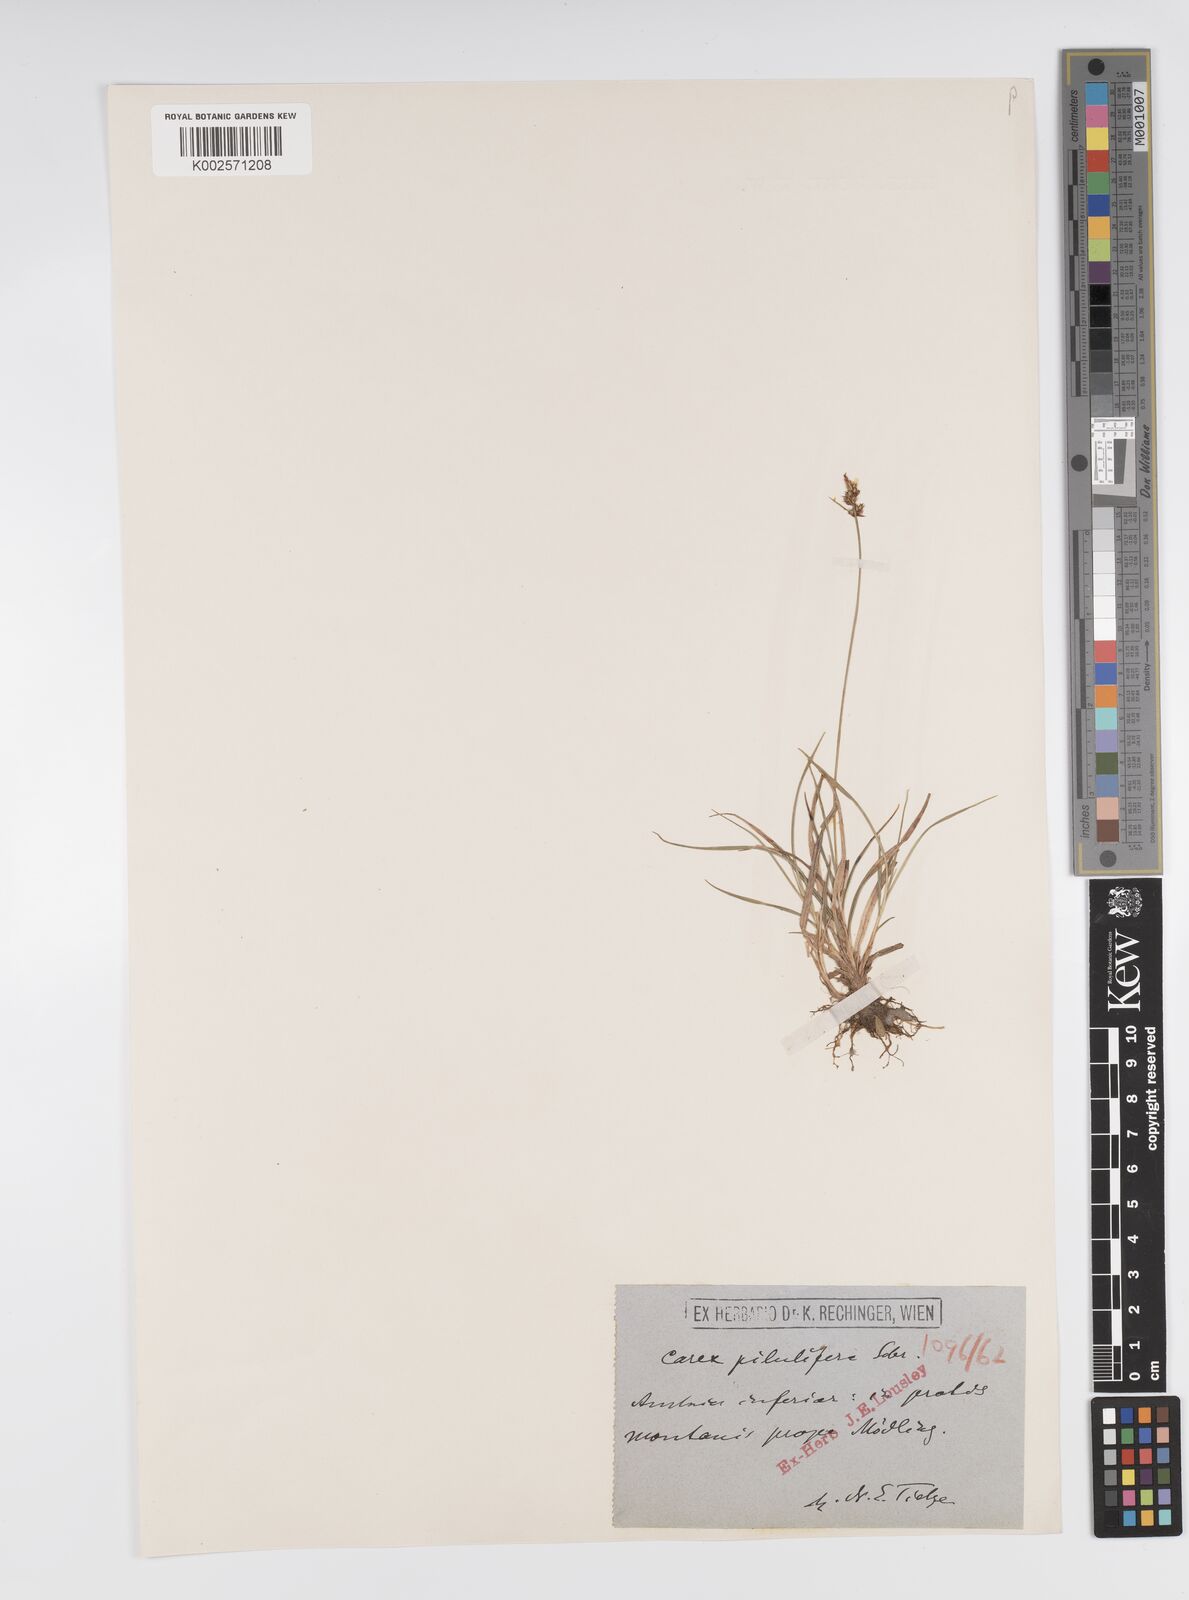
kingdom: Plantae
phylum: Tracheophyta
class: Liliopsida
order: Poales
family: Cyperaceae
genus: Carex
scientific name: Carex pilulifera
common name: Pill sedge
